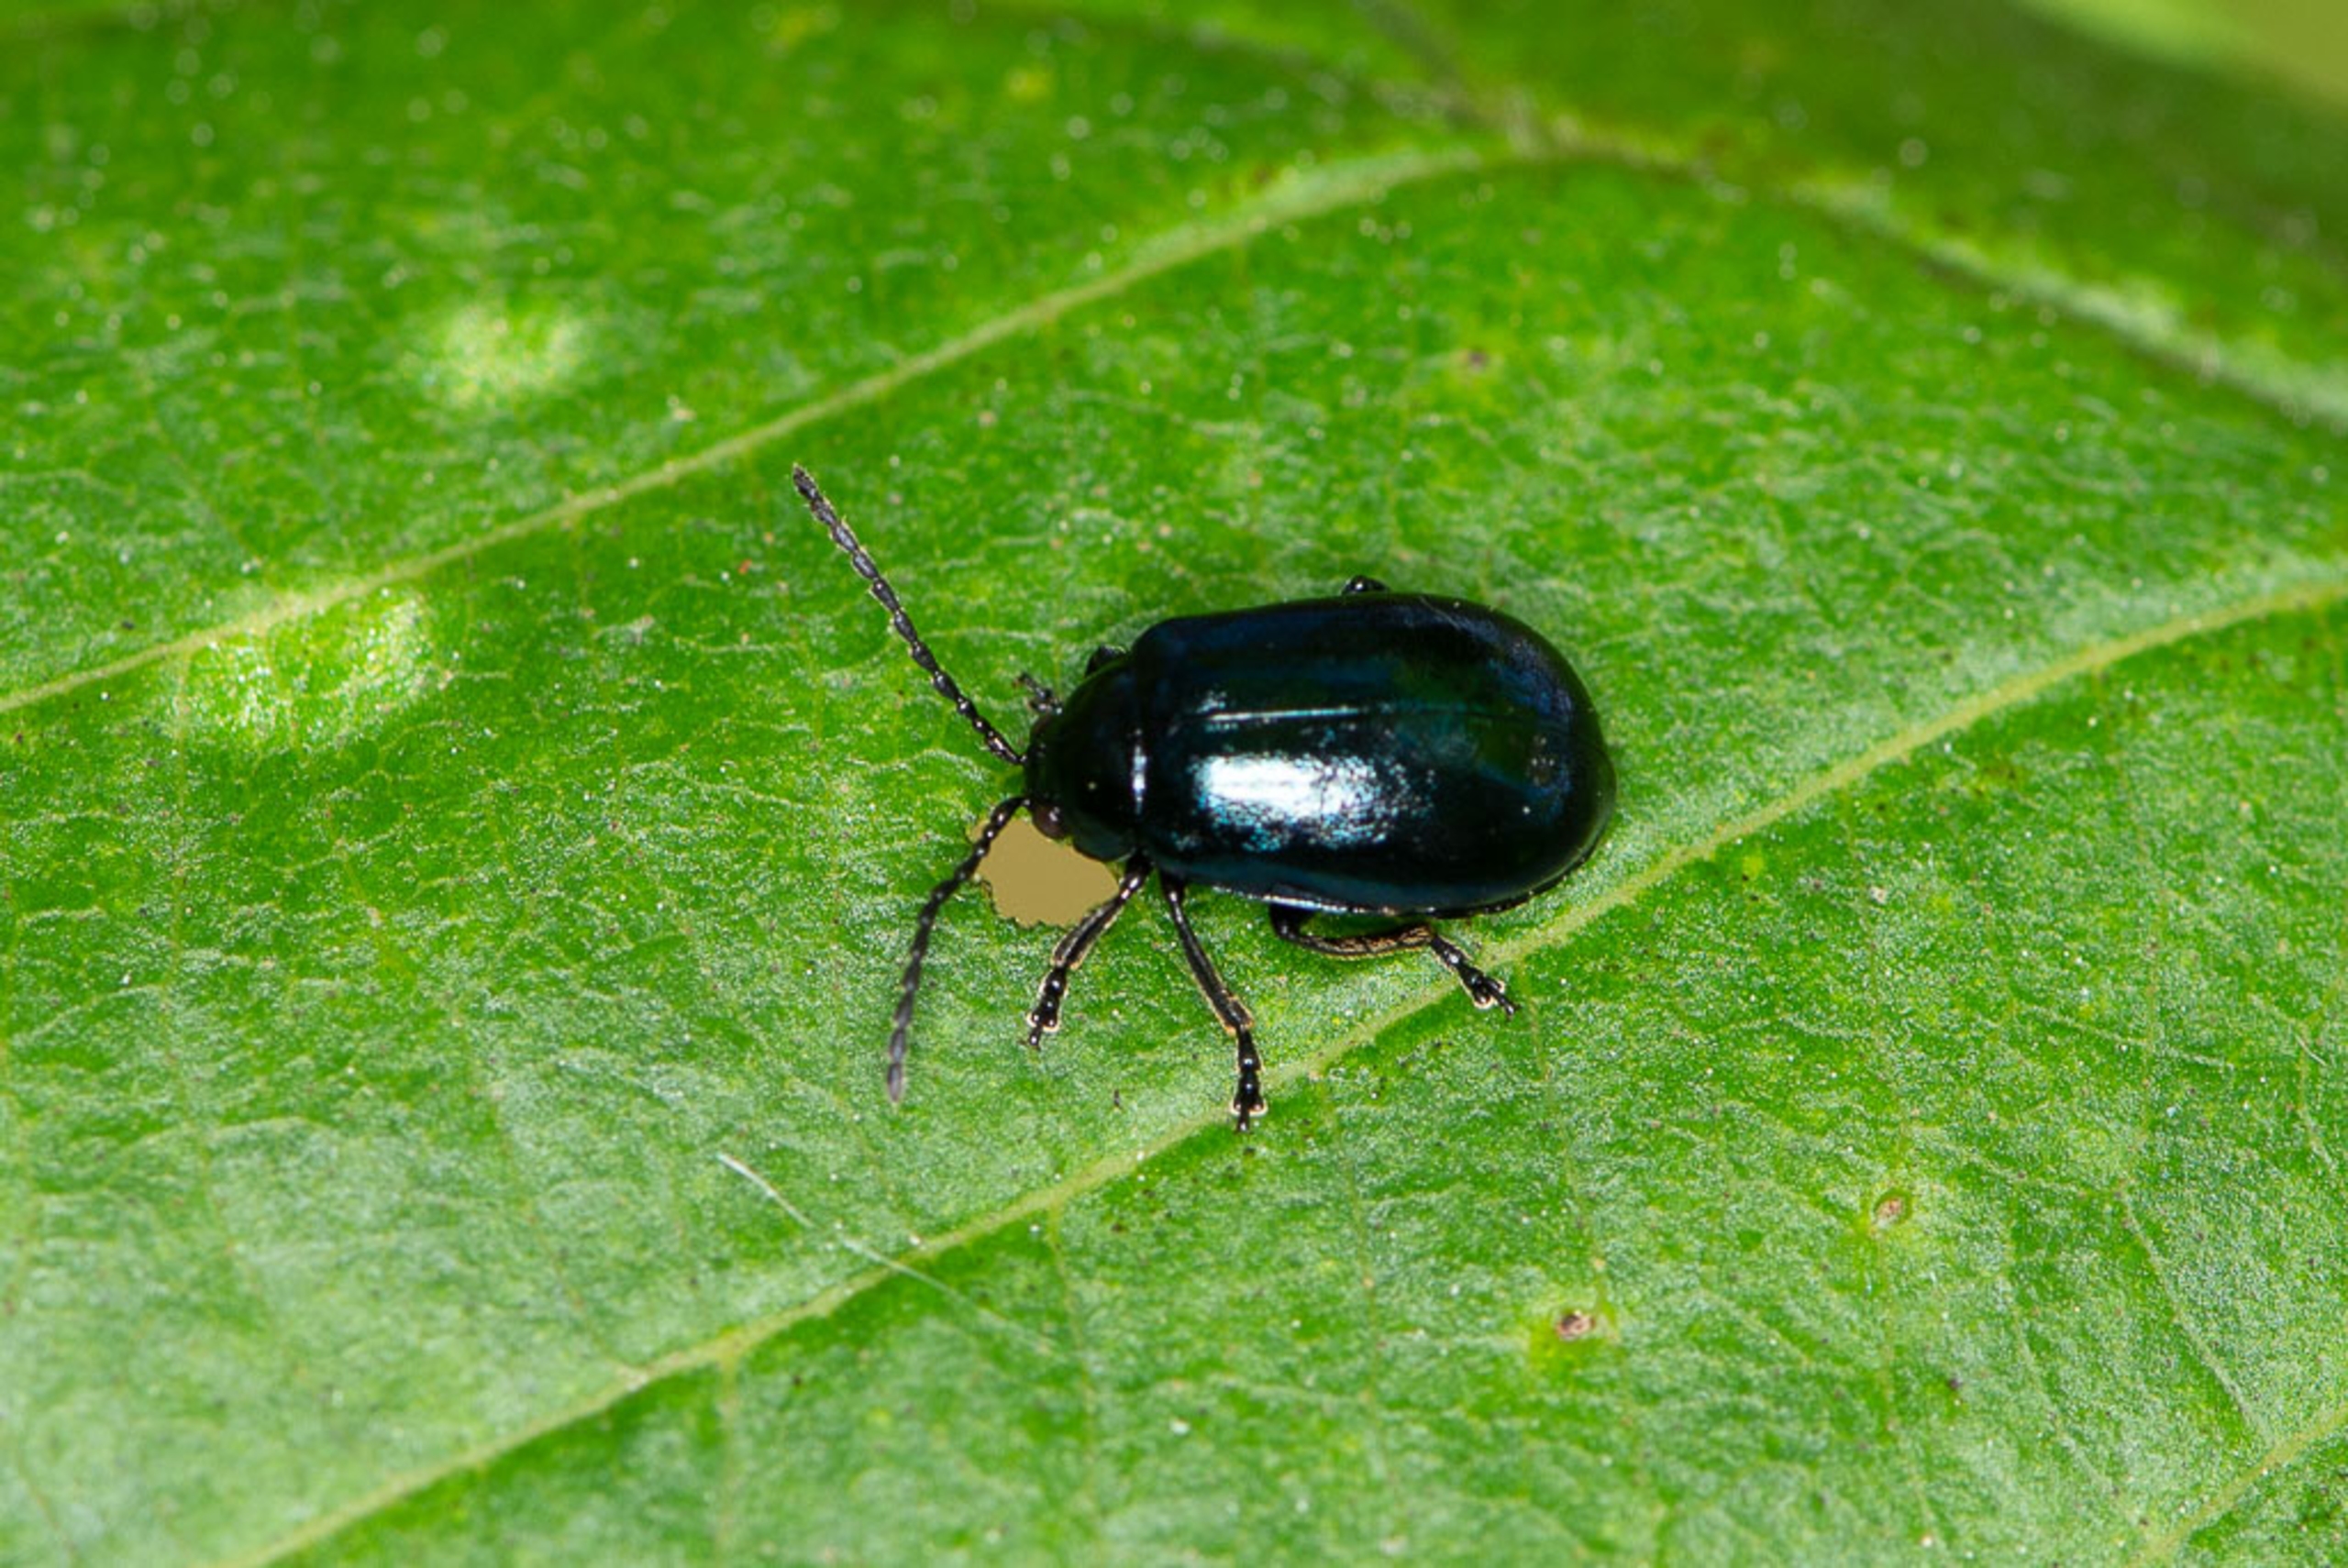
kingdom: Animalia
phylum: Arthropoda
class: Insecta
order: Coleoptera
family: Chrysomelidae
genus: Agelastica
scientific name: Agelastica alni
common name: Ellebladbille
